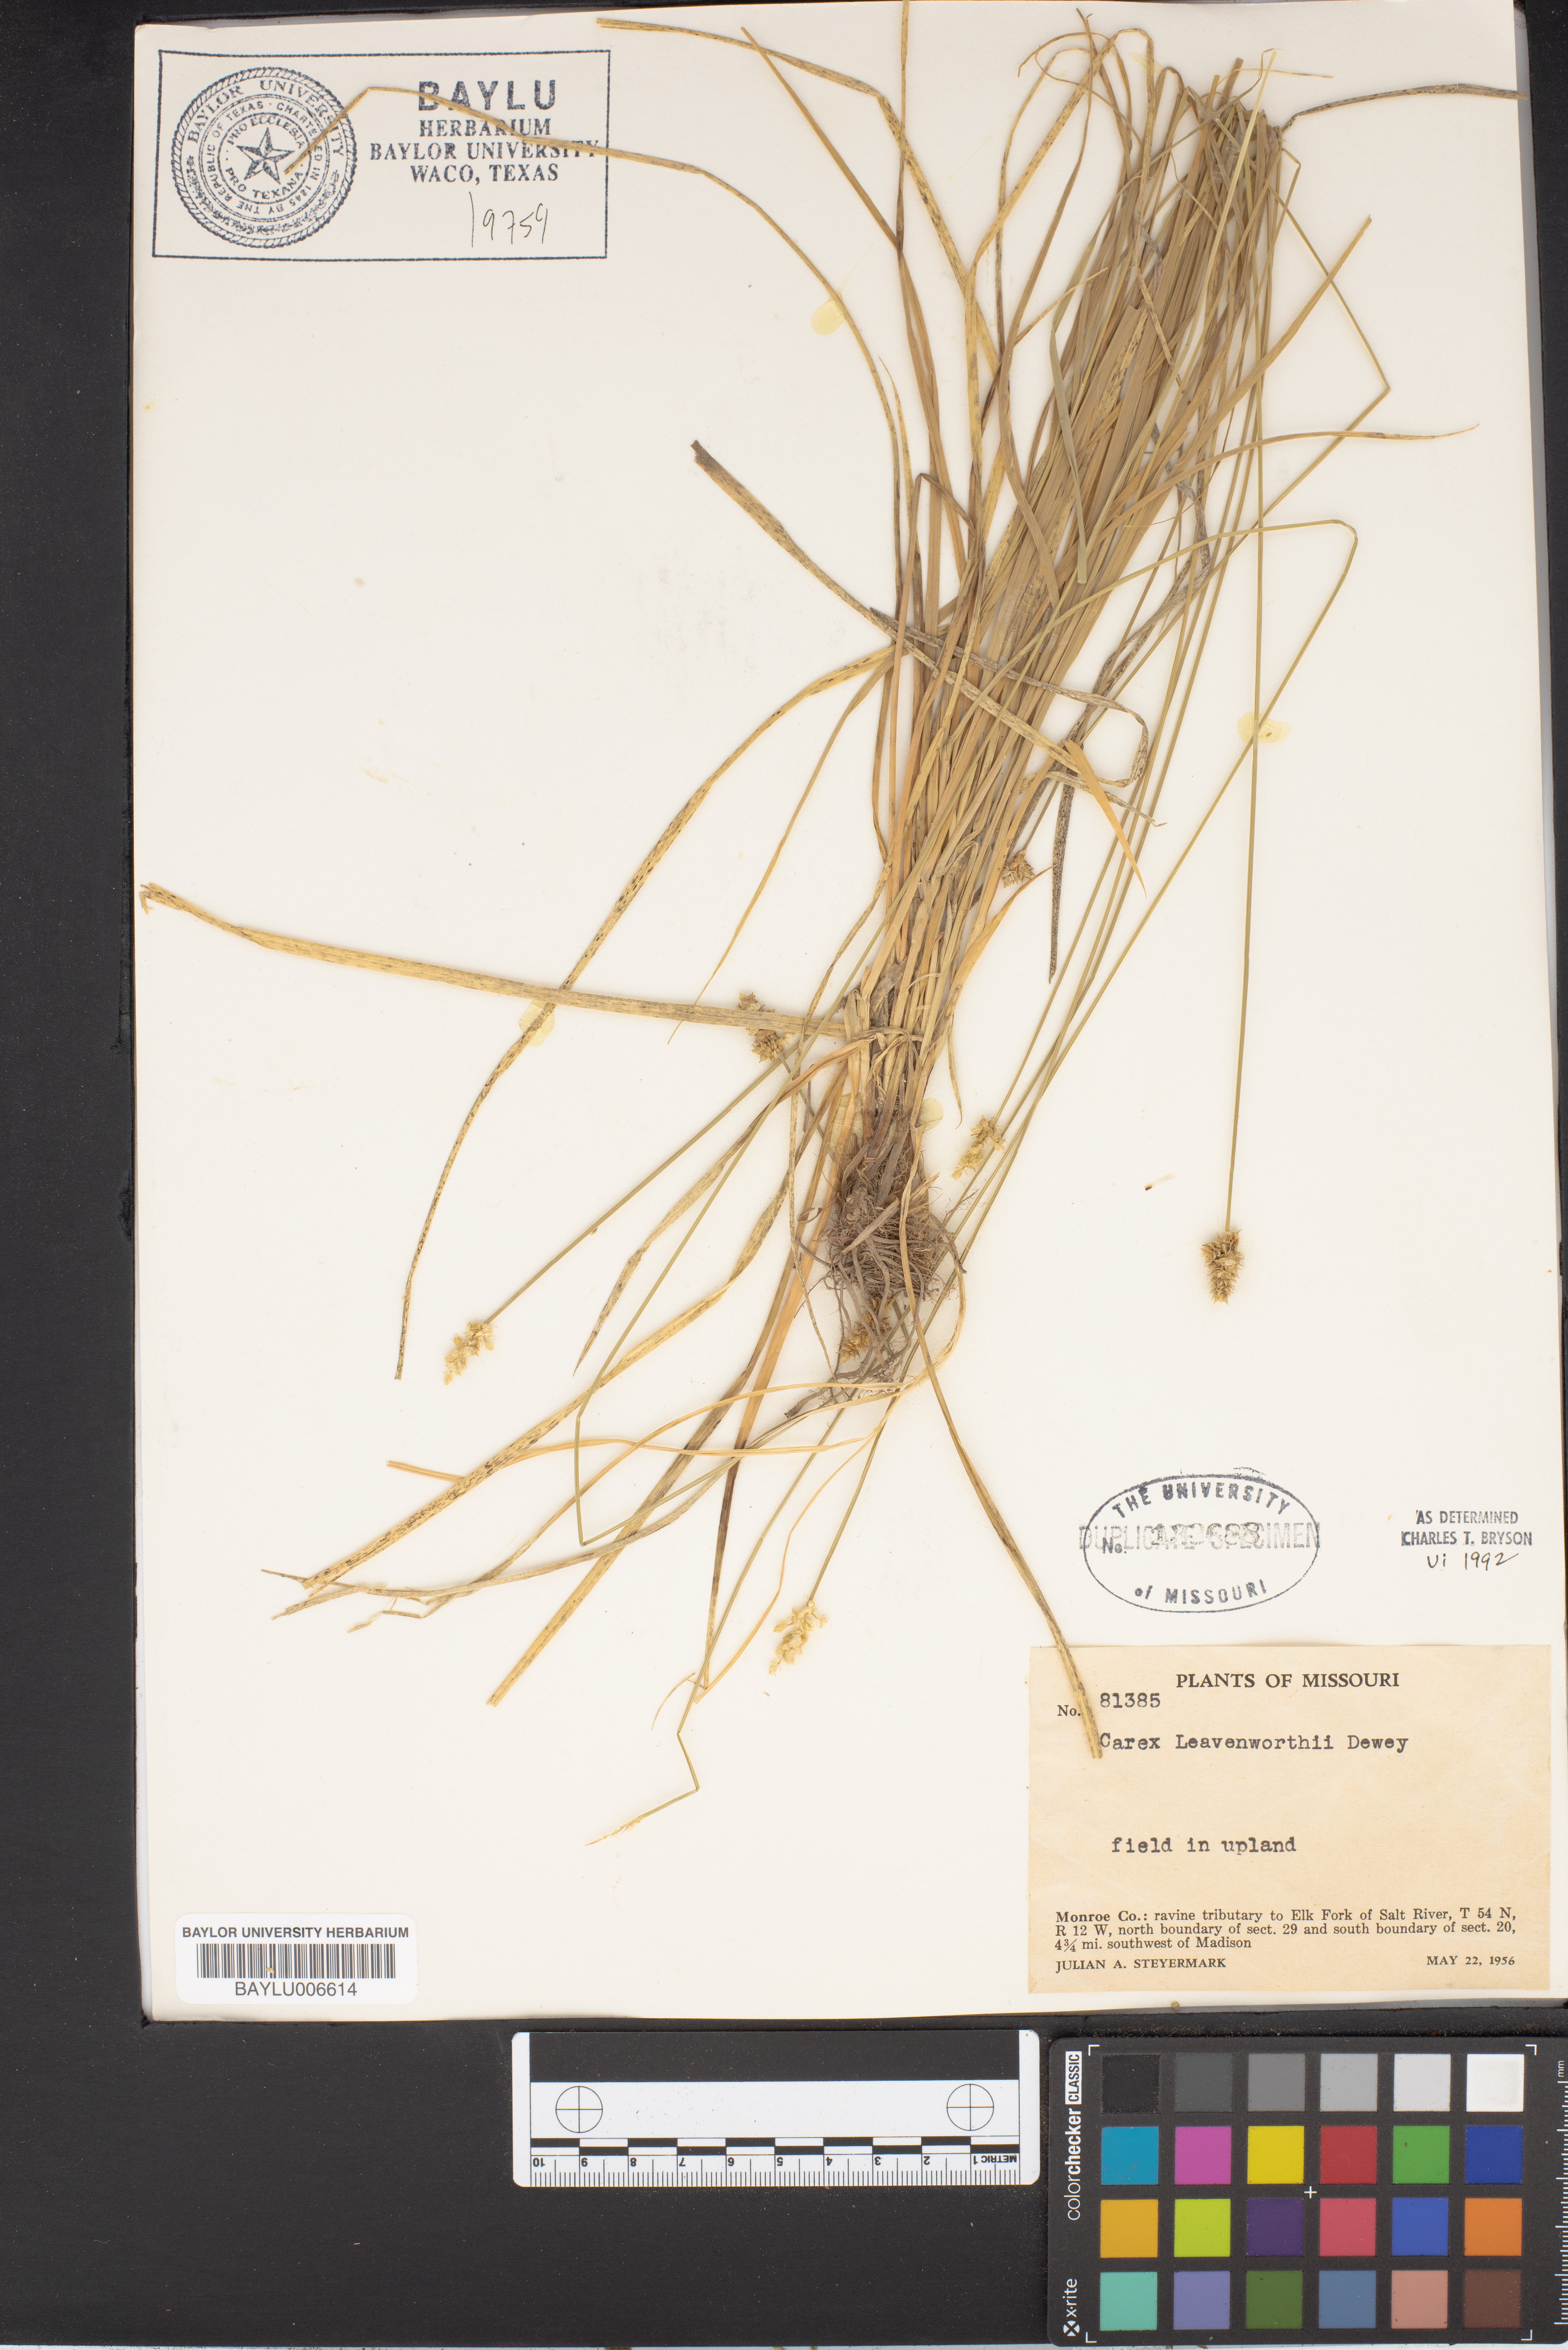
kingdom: Plantae
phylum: Tracheophyta
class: Liliopsida
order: Poales
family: Cyperaceae
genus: Carex
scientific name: Carex leavenworthii
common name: Leavenworth's bracted sedge
